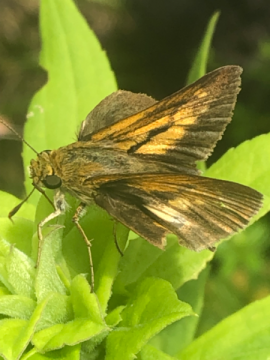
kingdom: Animalia
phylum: Arthropoda
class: Insecta
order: Lepidoptera
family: Hesperiidae
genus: Euphyes
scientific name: Euphyes dion
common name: Dion Skipper
